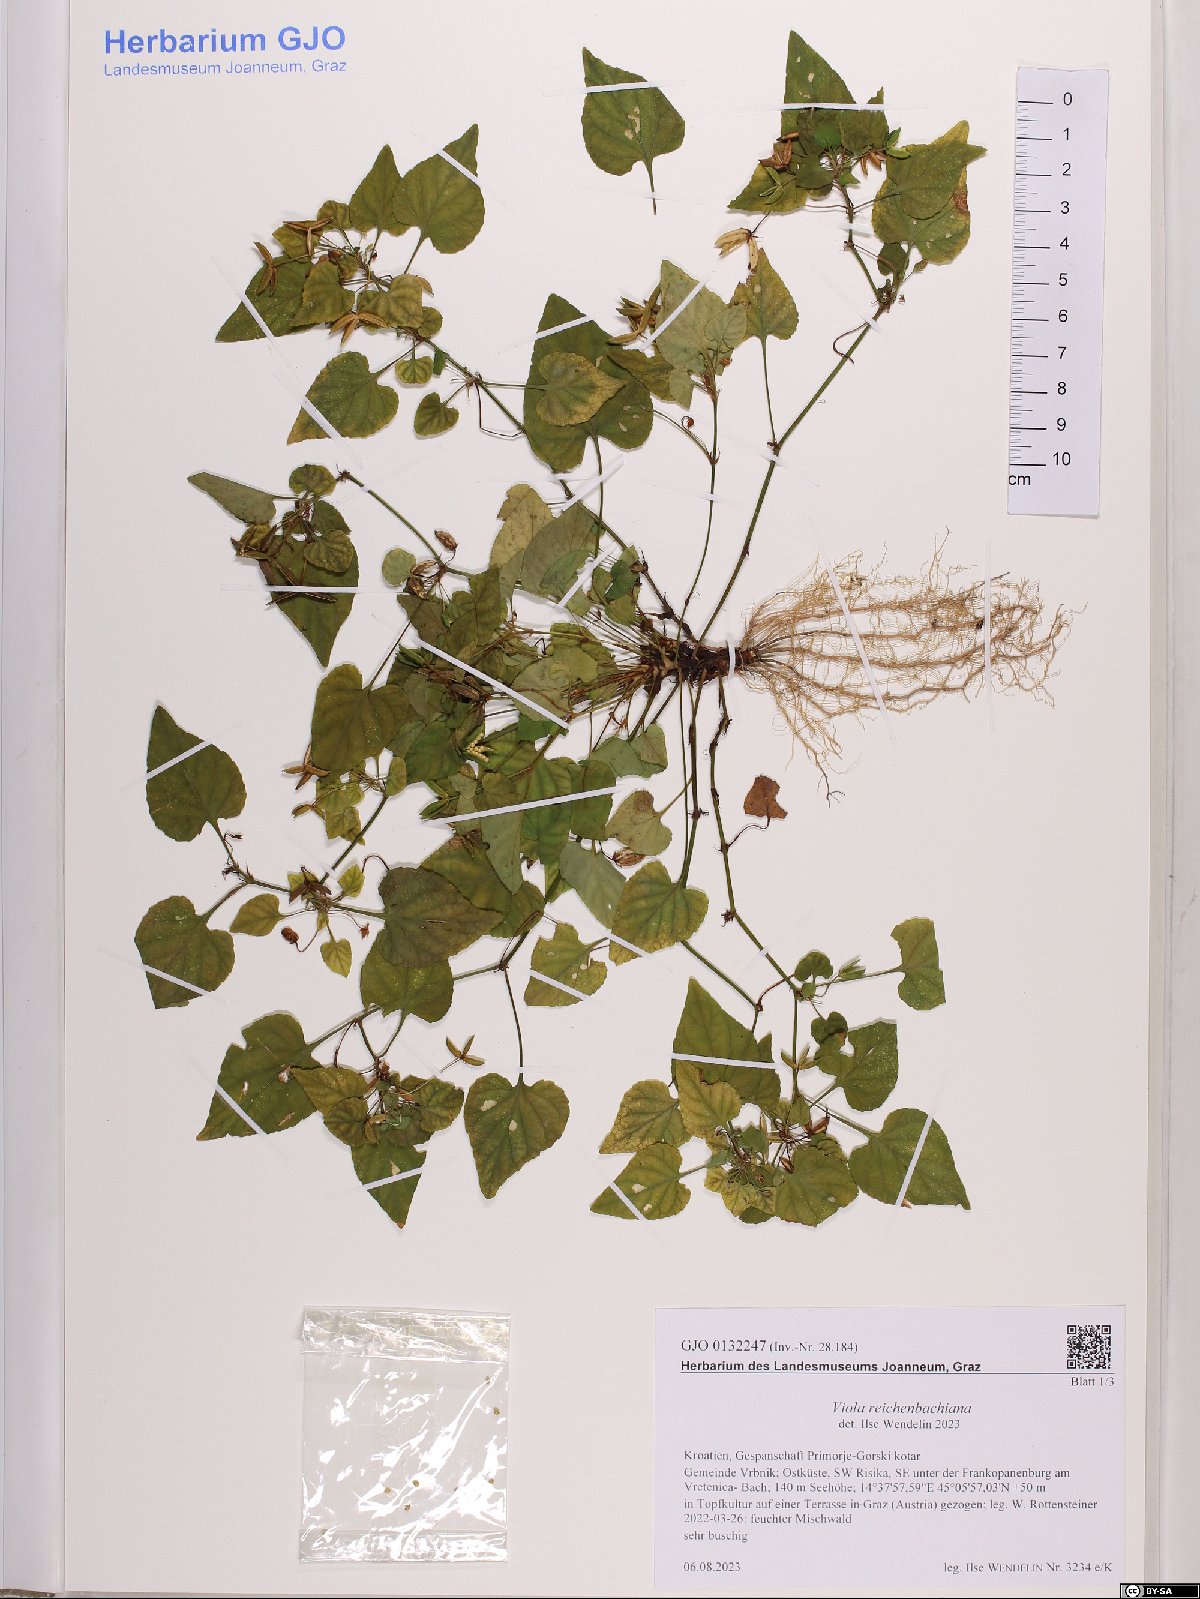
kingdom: Plantae
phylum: Tracheophyta
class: Magnoliopsida
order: Malpighiales
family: Violaceae
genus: Viola
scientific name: Viola reichenbachiana
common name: Early dog-violet
